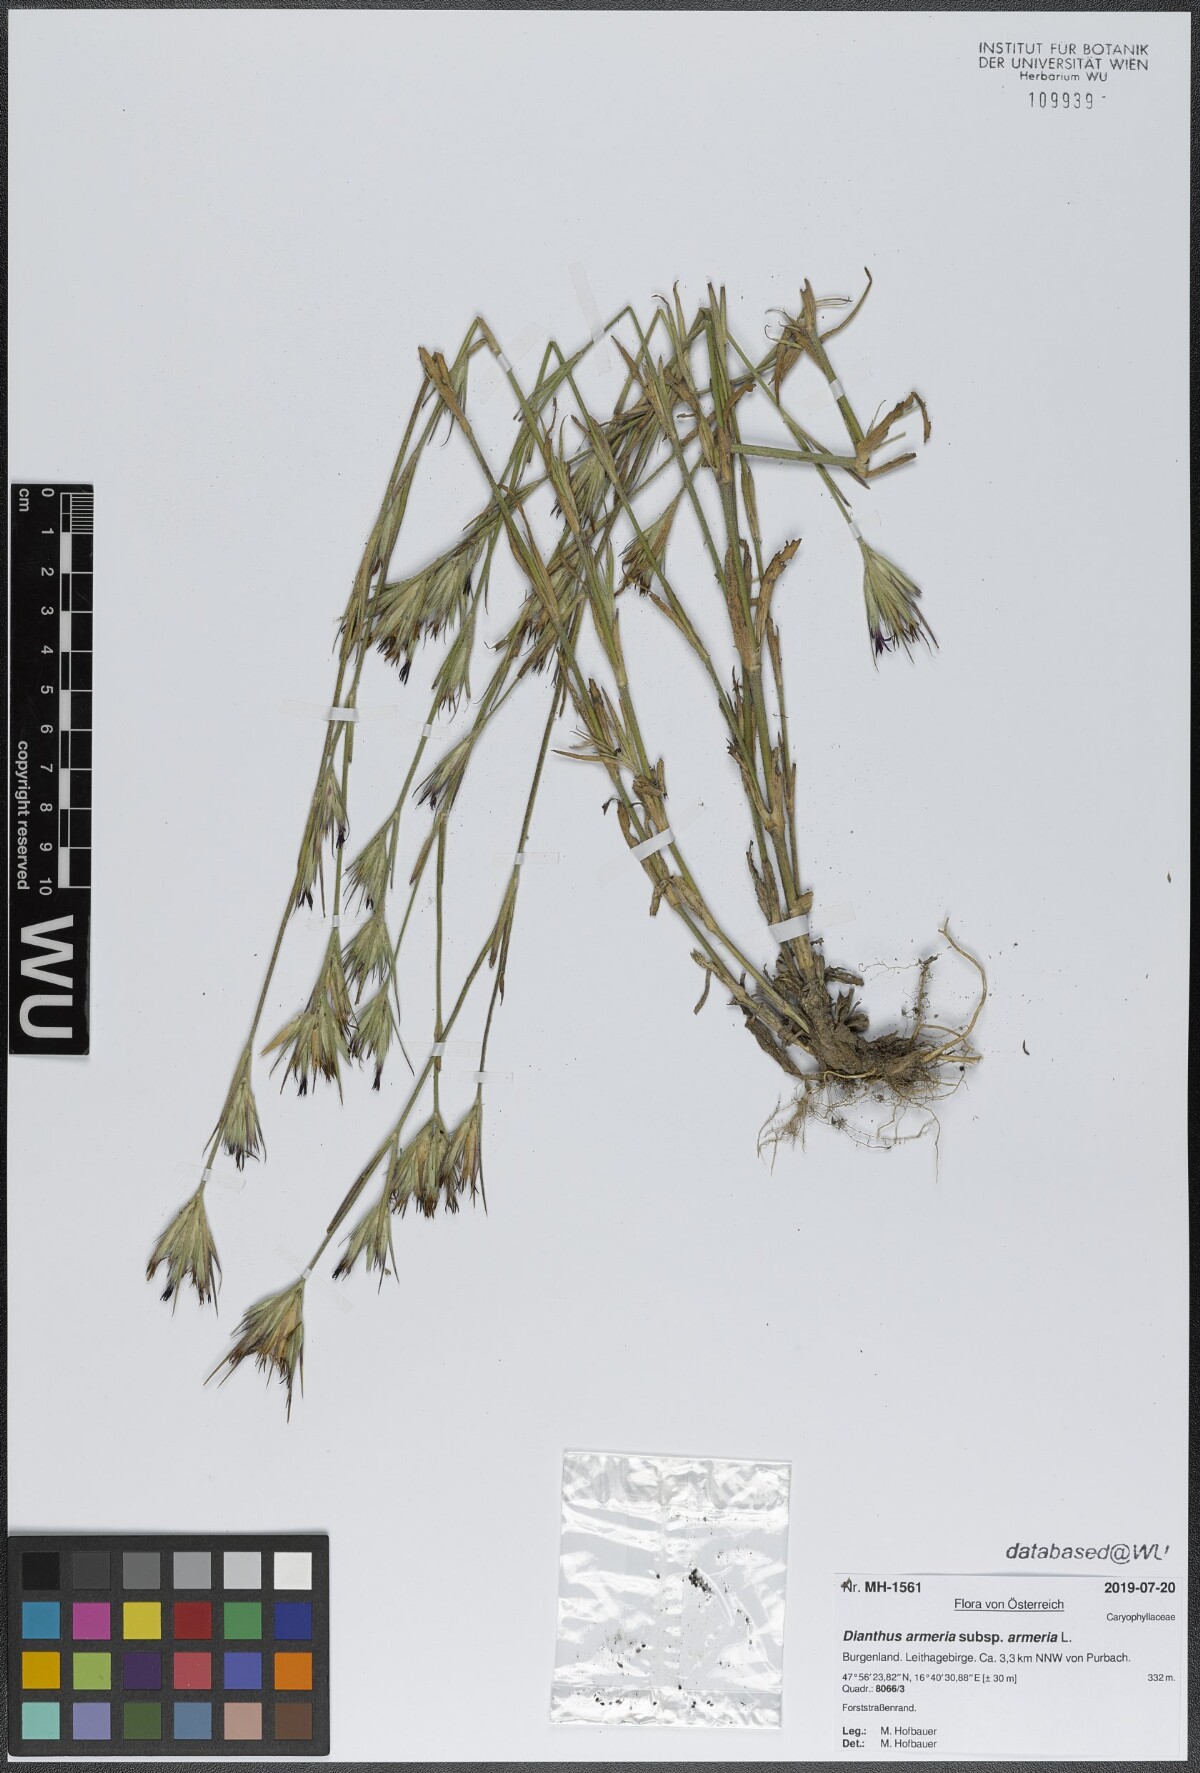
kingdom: Plantae
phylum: Tracheophyta
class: Magnoliopsida
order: Caryophyllales
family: Caryophyllaceae
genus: Dianthus
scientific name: Dianthus armeria
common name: Deptford pink
